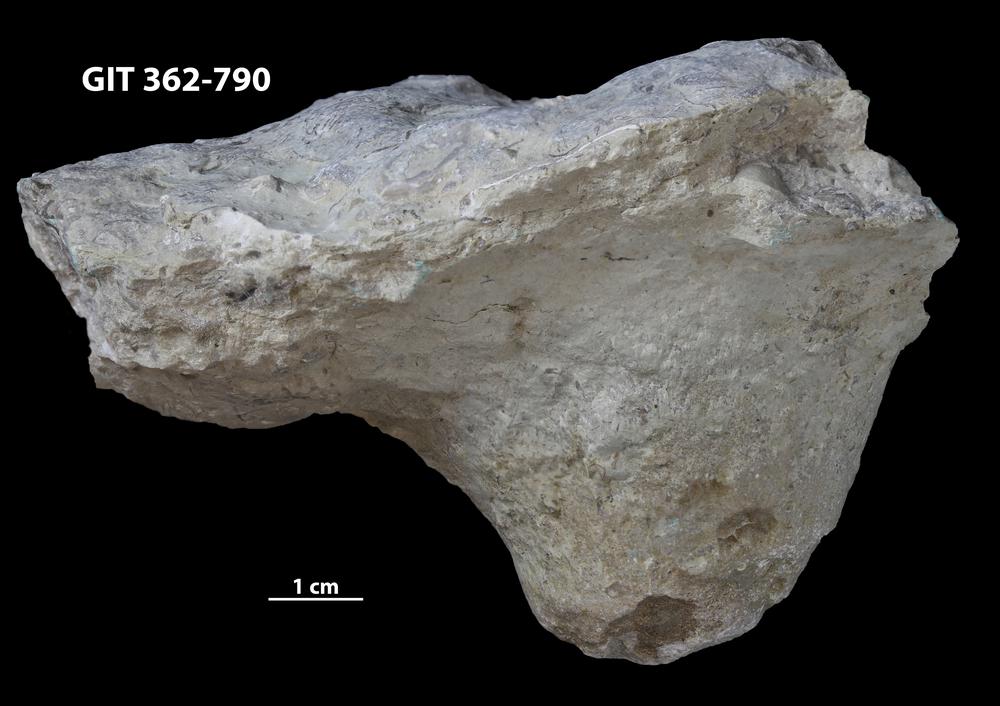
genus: Conichnus
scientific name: Conichnus
